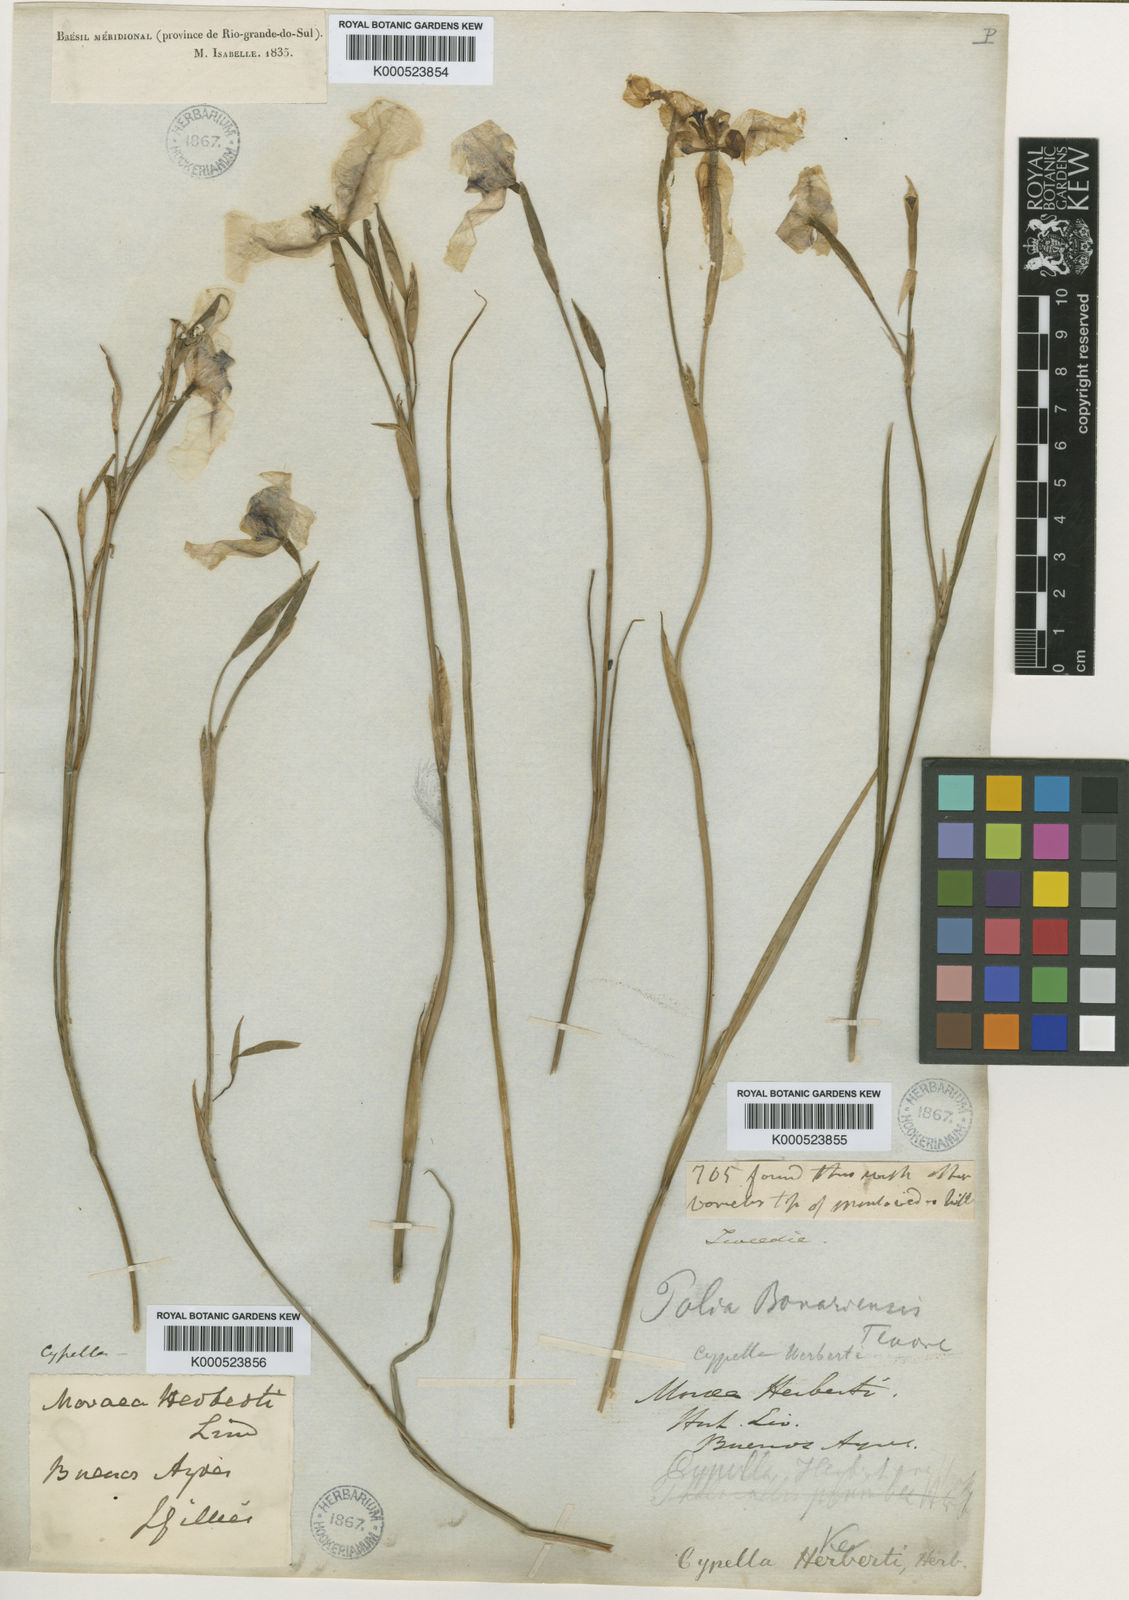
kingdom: Plantae
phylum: Tracheophyta
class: Liliopsida
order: Asparagales
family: Iridaceae
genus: Cypella
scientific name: Cypella herbertii
